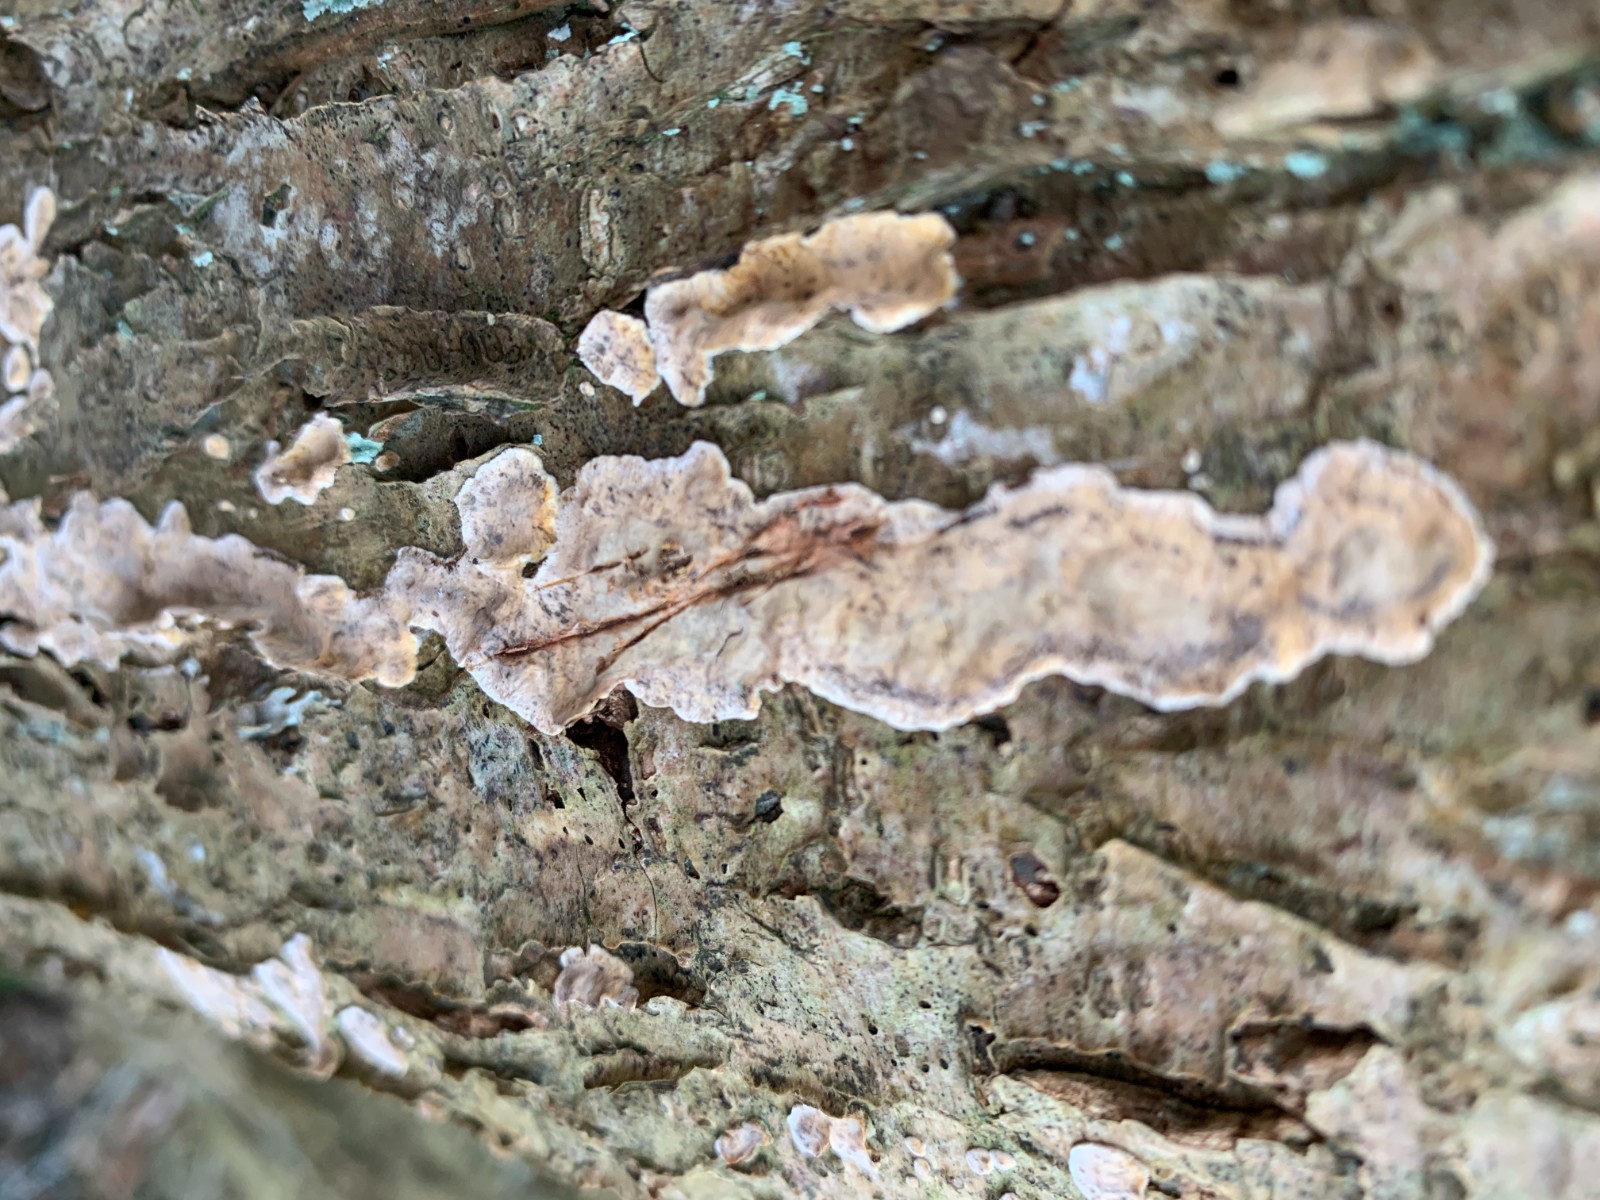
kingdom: Fungi
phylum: Basidiomycota
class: Agaricomycetes
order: Russulales
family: Stereaceae
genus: Stereum
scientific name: Stereum rugosum
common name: rynket lædersvamp
